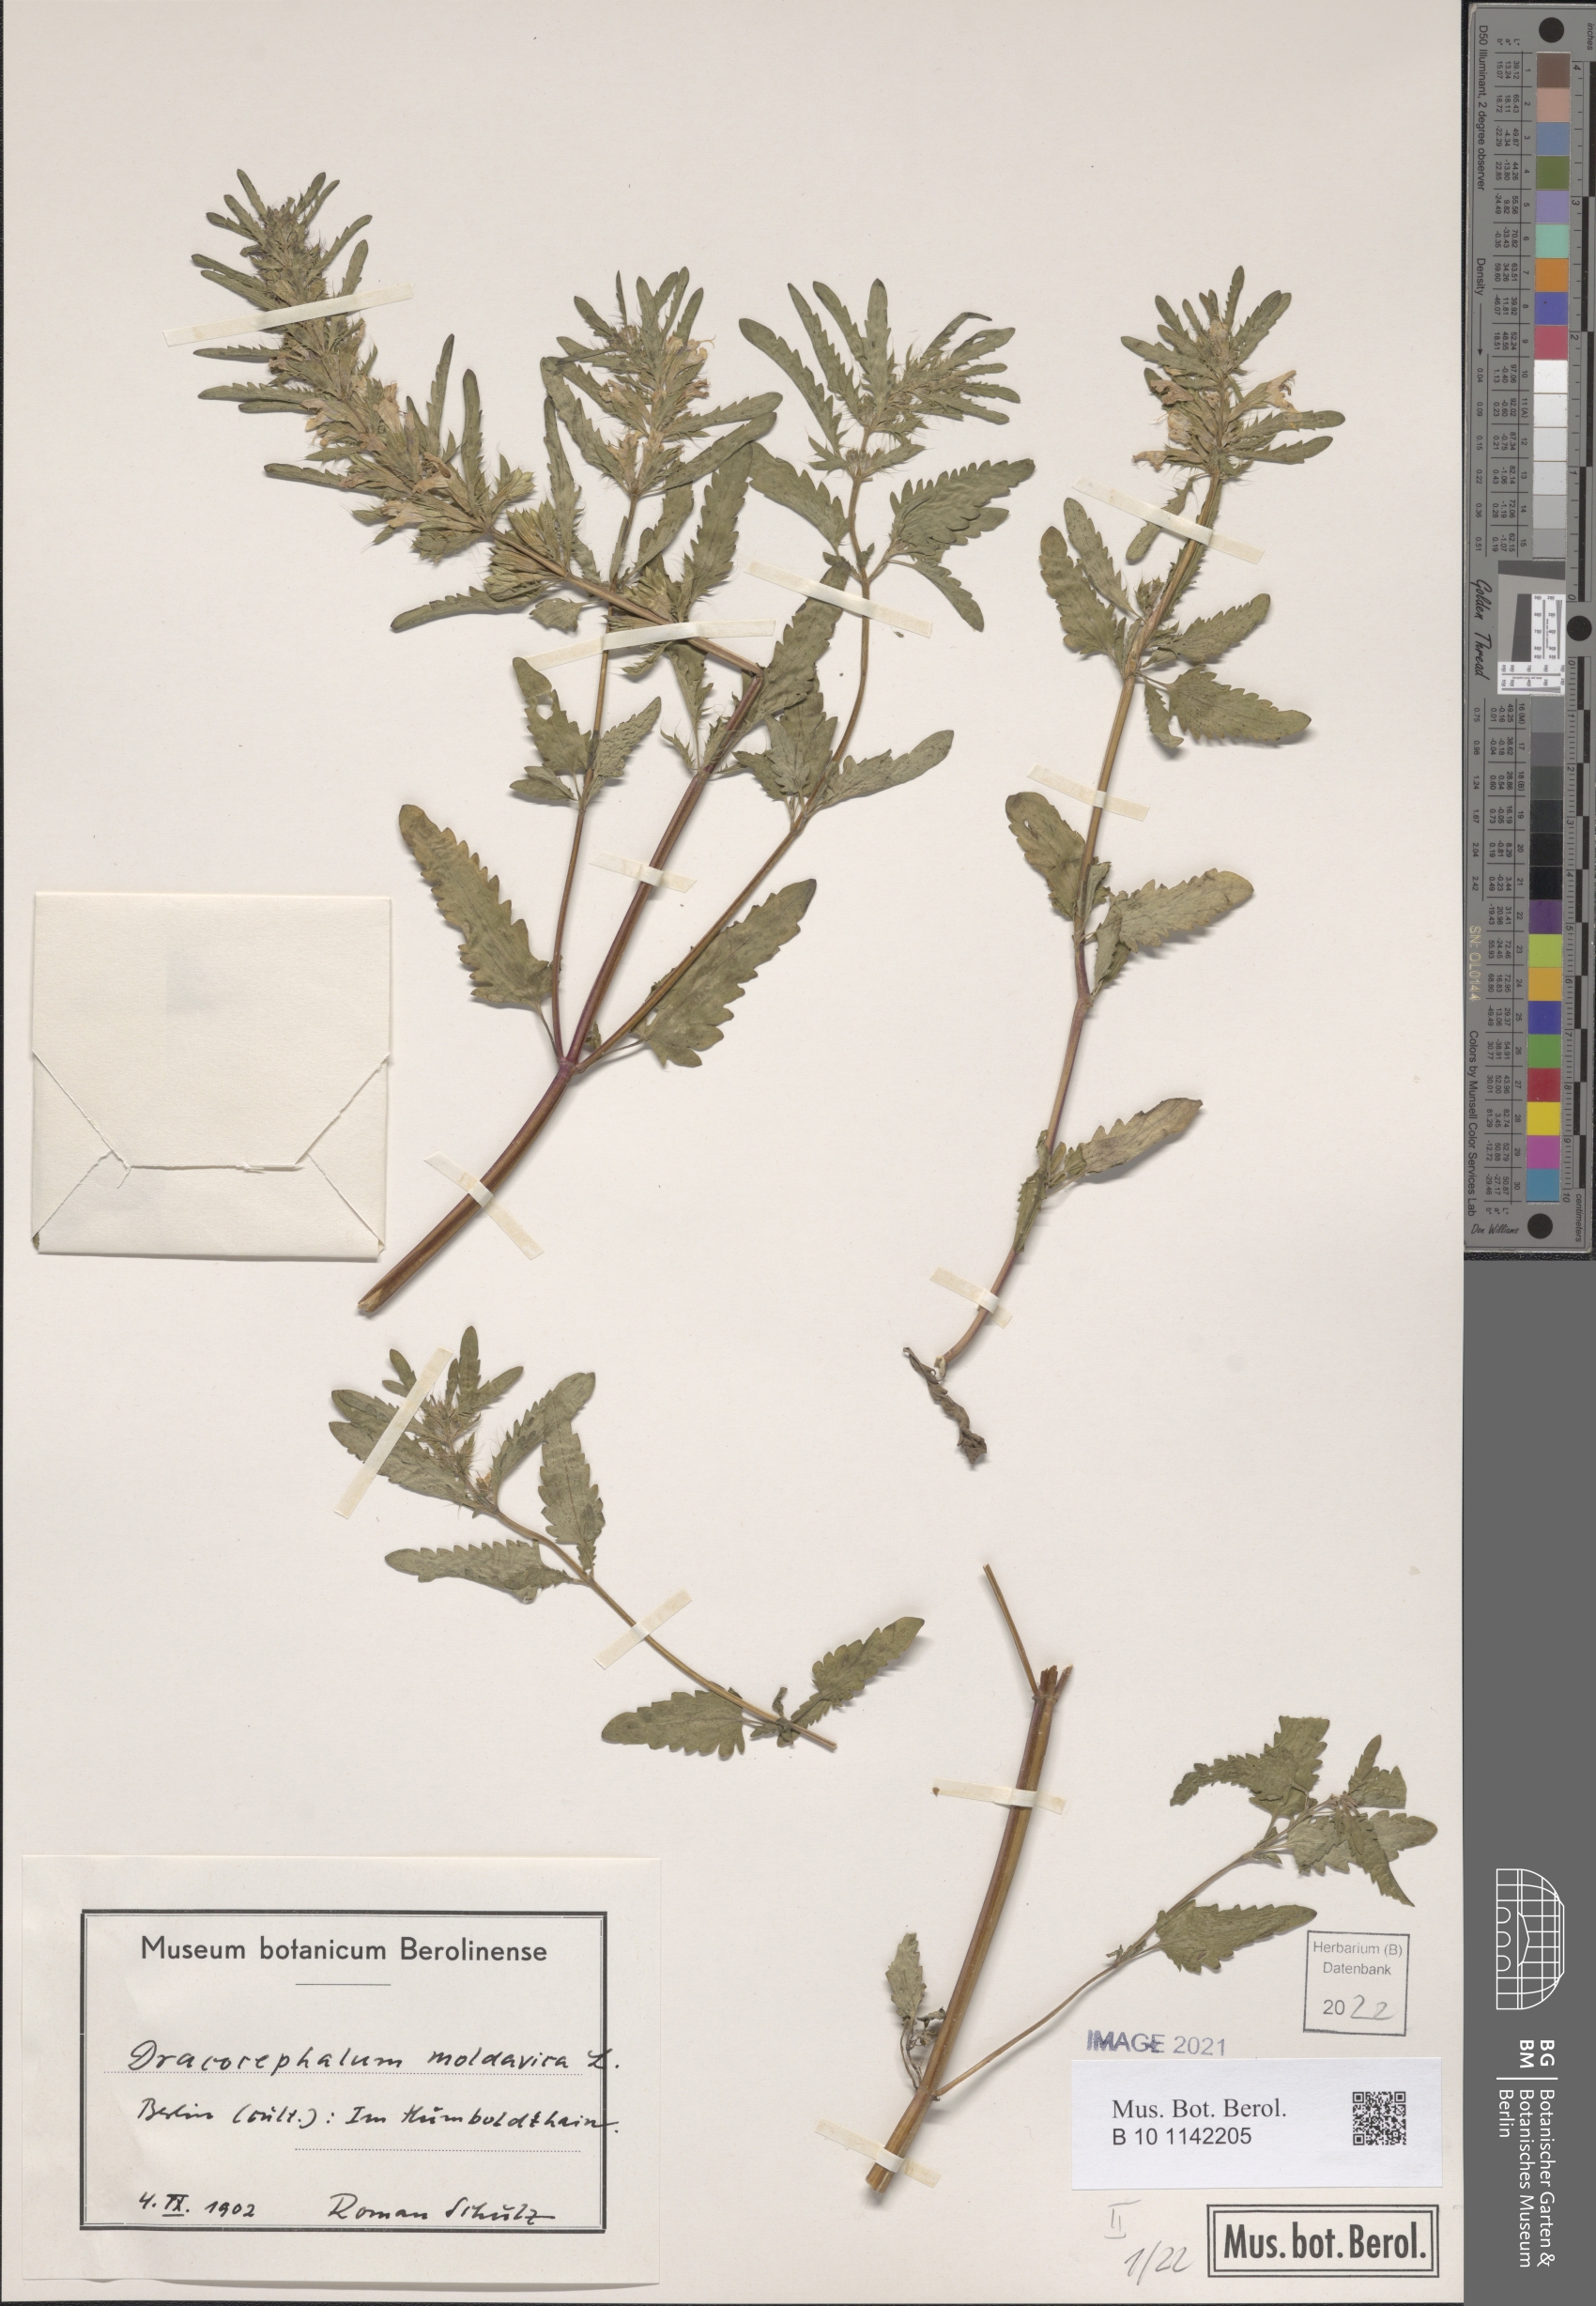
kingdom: Plantae
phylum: Tracheophyta
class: Magnoliopsida
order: Lamiales
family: Lamiaceae
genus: Dracocephalum
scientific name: Dracocephalum moldavica
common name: Moldavian dragonhead
